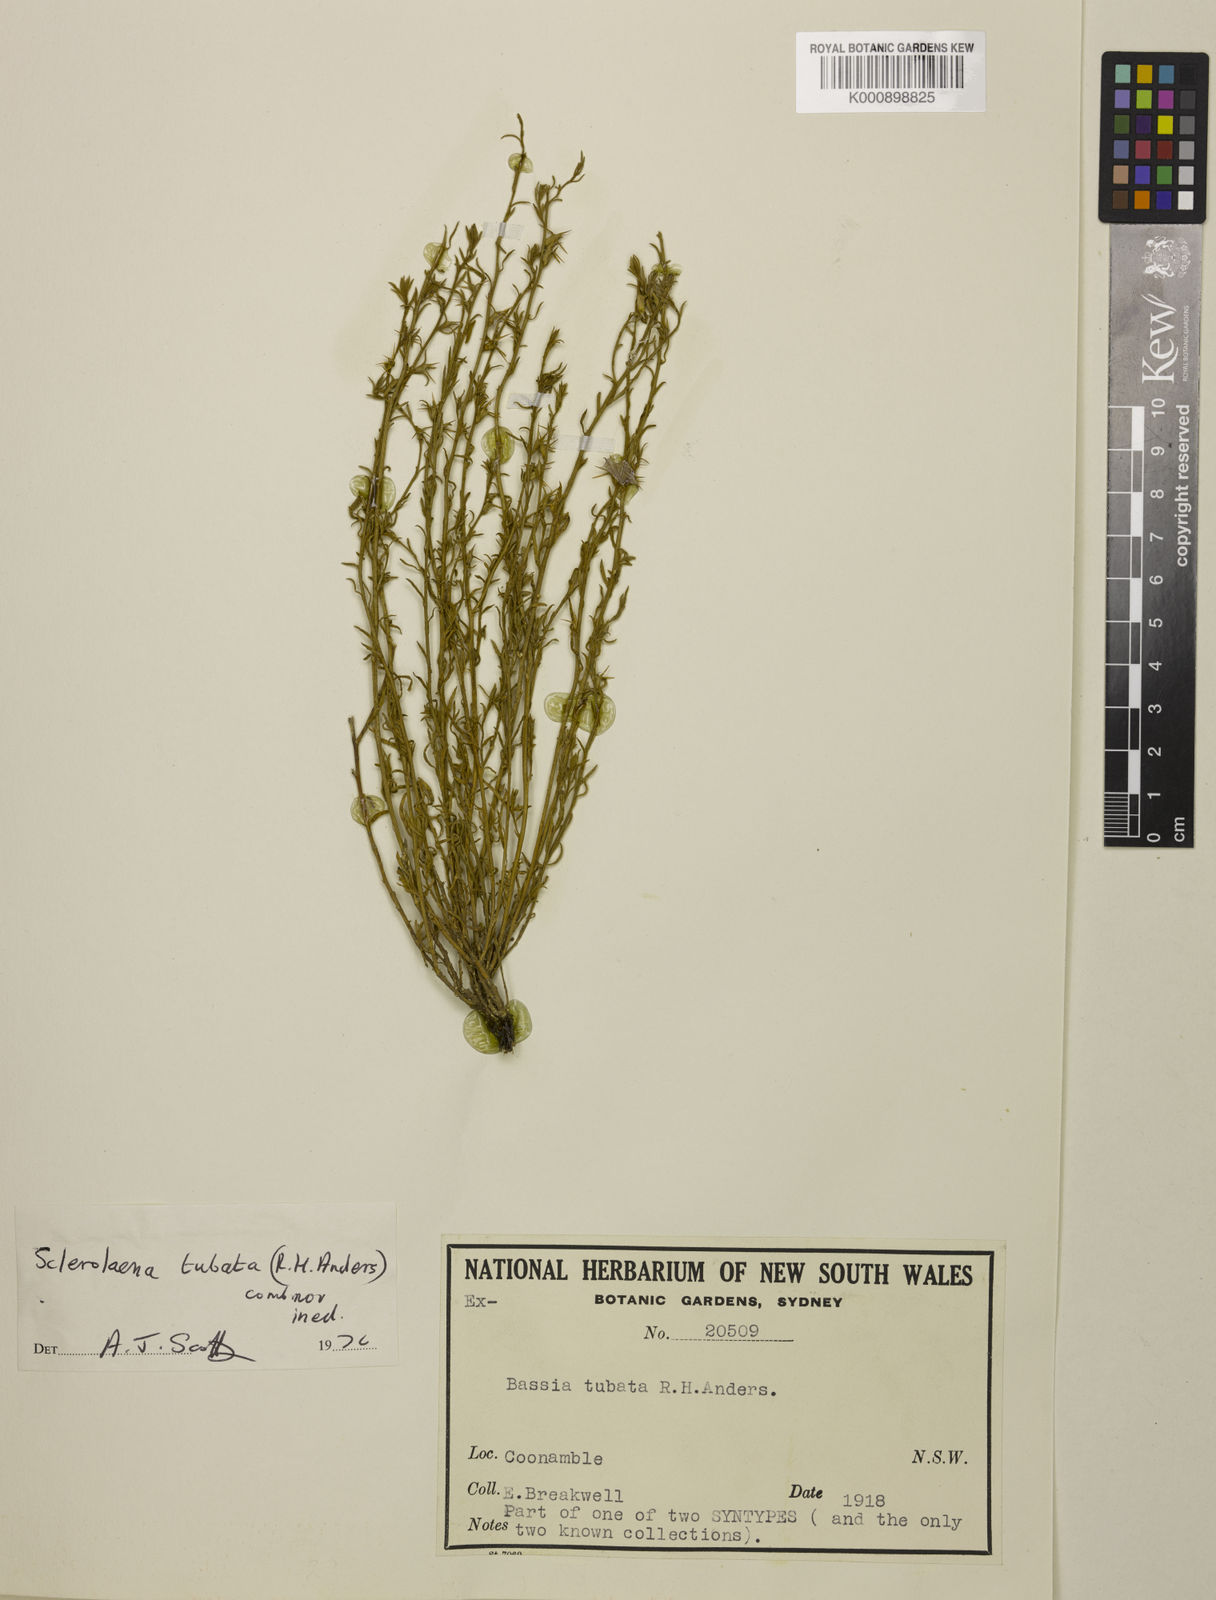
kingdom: Plantae
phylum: Tracheophyta
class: Magnoliopsida
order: Caryophyllales
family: Amaranthaceae
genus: Sclerolaena
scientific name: Sclerolaena tubata
